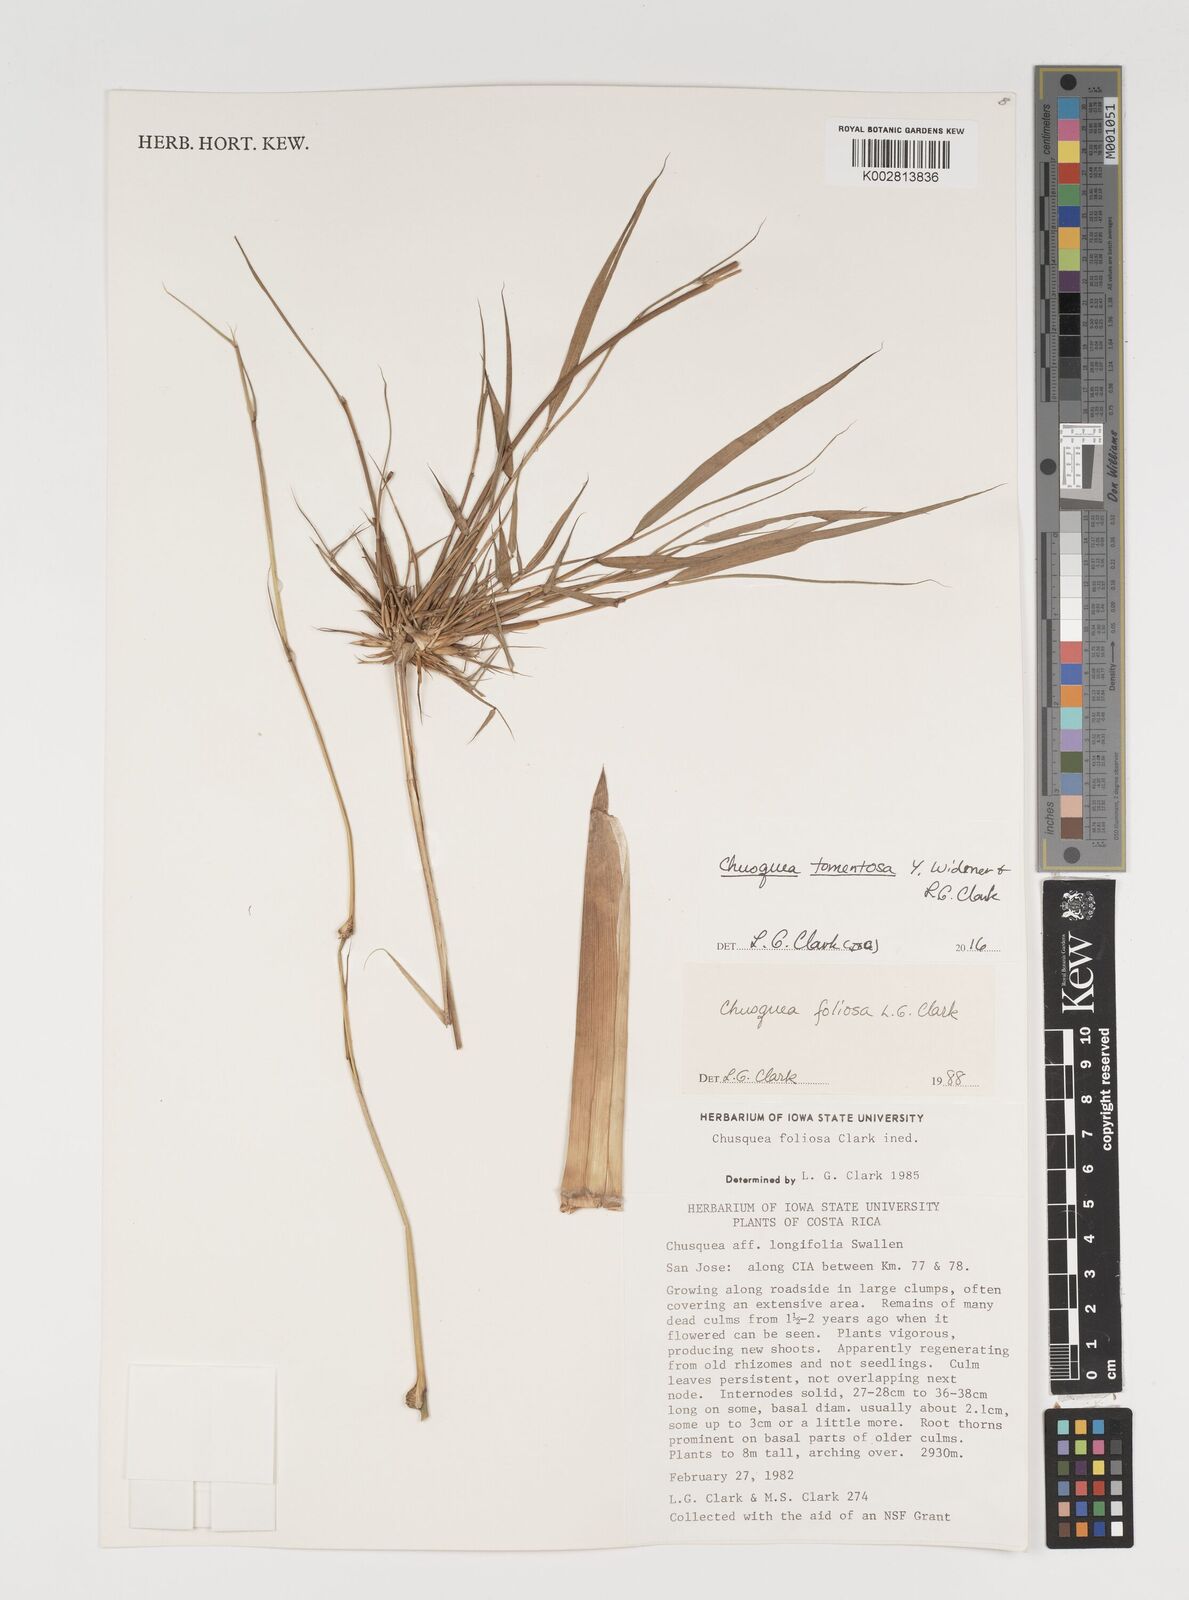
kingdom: Plantae
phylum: Tracheophyta
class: Liliopsida
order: Poales
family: Poaceae
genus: Chusquea
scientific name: Chusquea tomentosa
